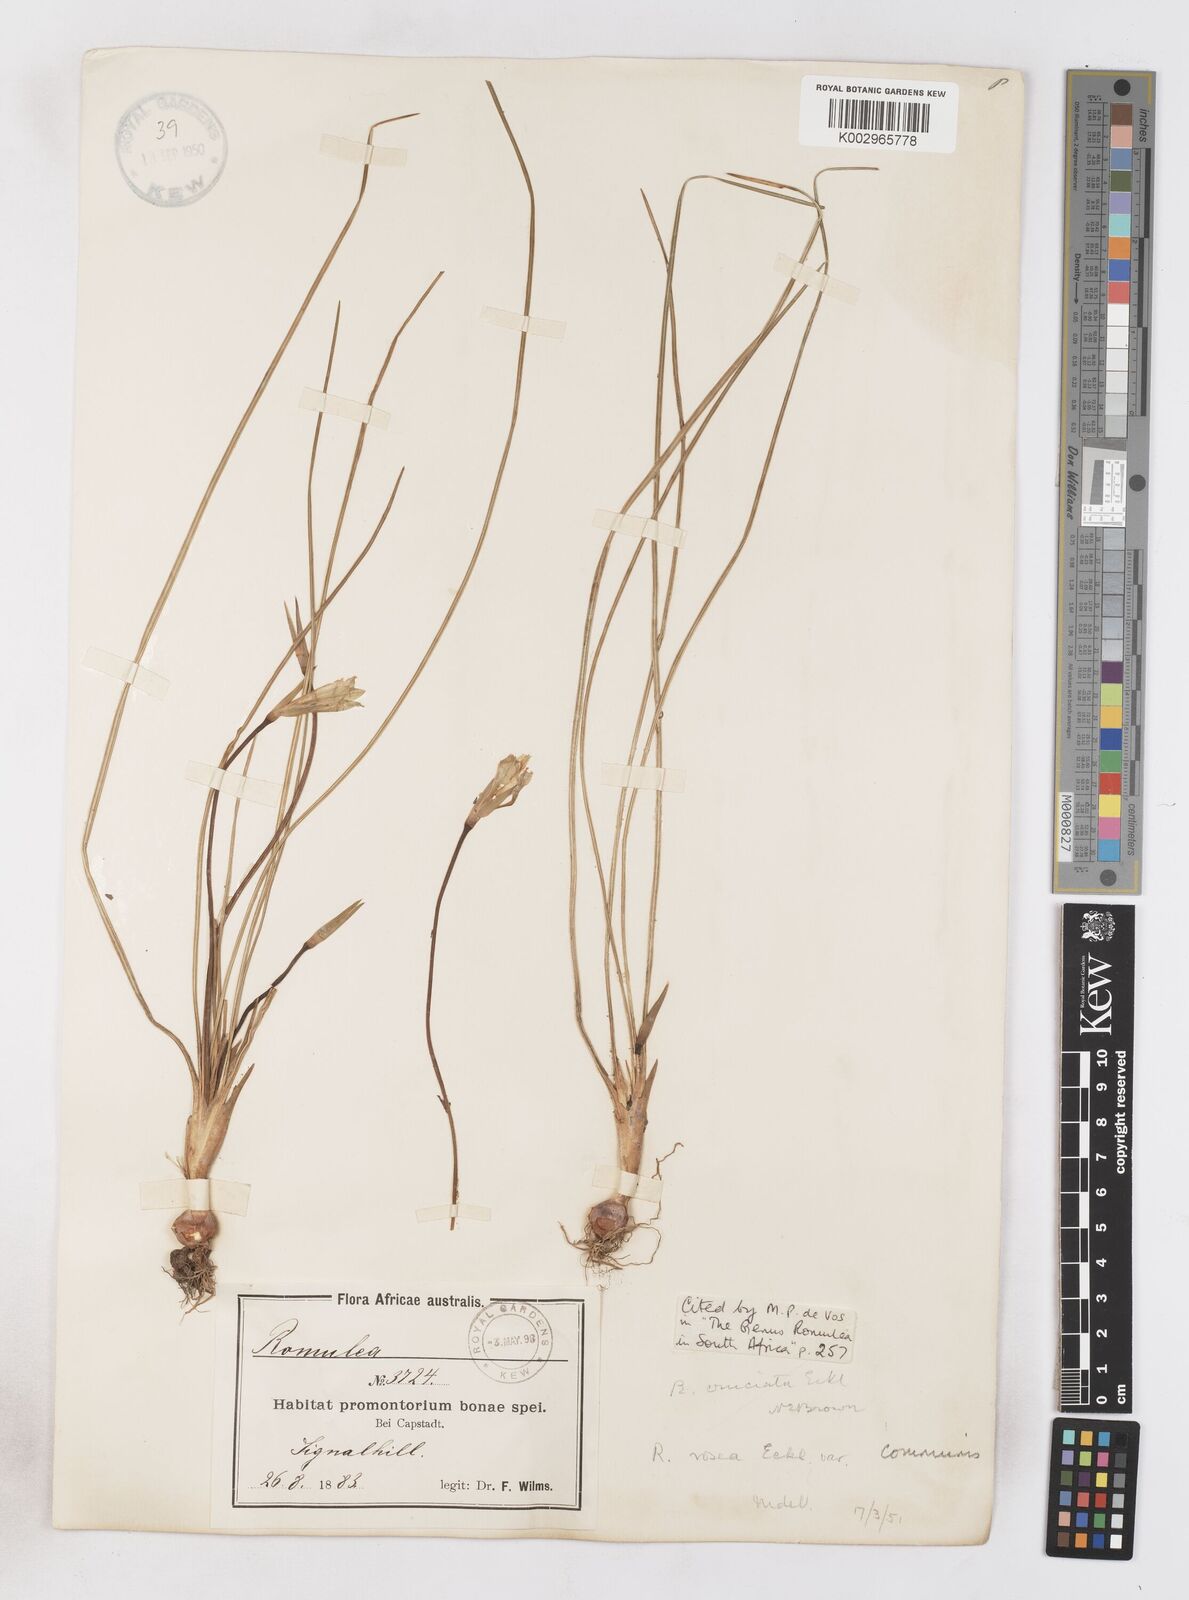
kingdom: Plantae
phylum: Tracheophyta
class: Liliopsida
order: Asparagales
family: Iridaceae
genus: Romulea
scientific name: Romulea rosea
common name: Oniongrass
